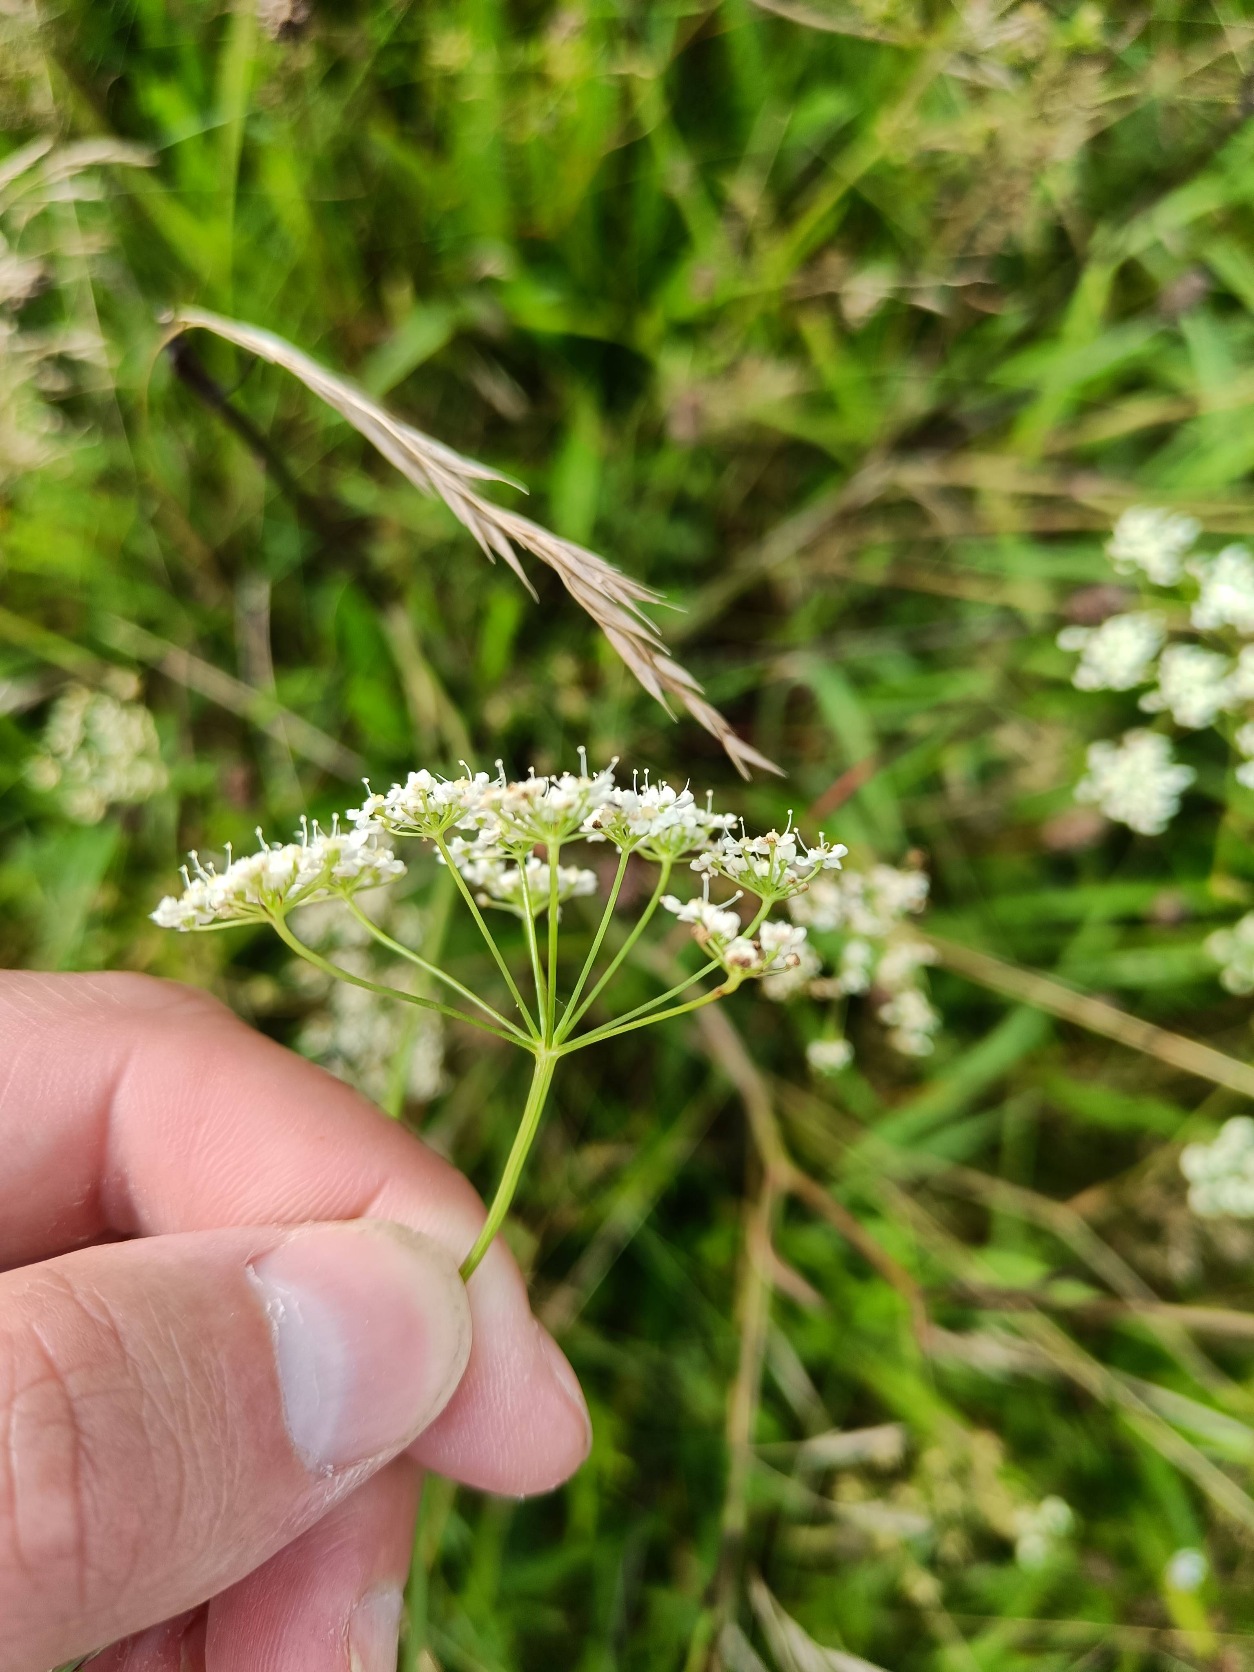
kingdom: Plantae
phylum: Tracheophyta
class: Magnoliopsida
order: Apiales
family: Apiaceae
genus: Pimpinella
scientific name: Pimpinella saxifraga
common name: Almindelig pimpinelle
